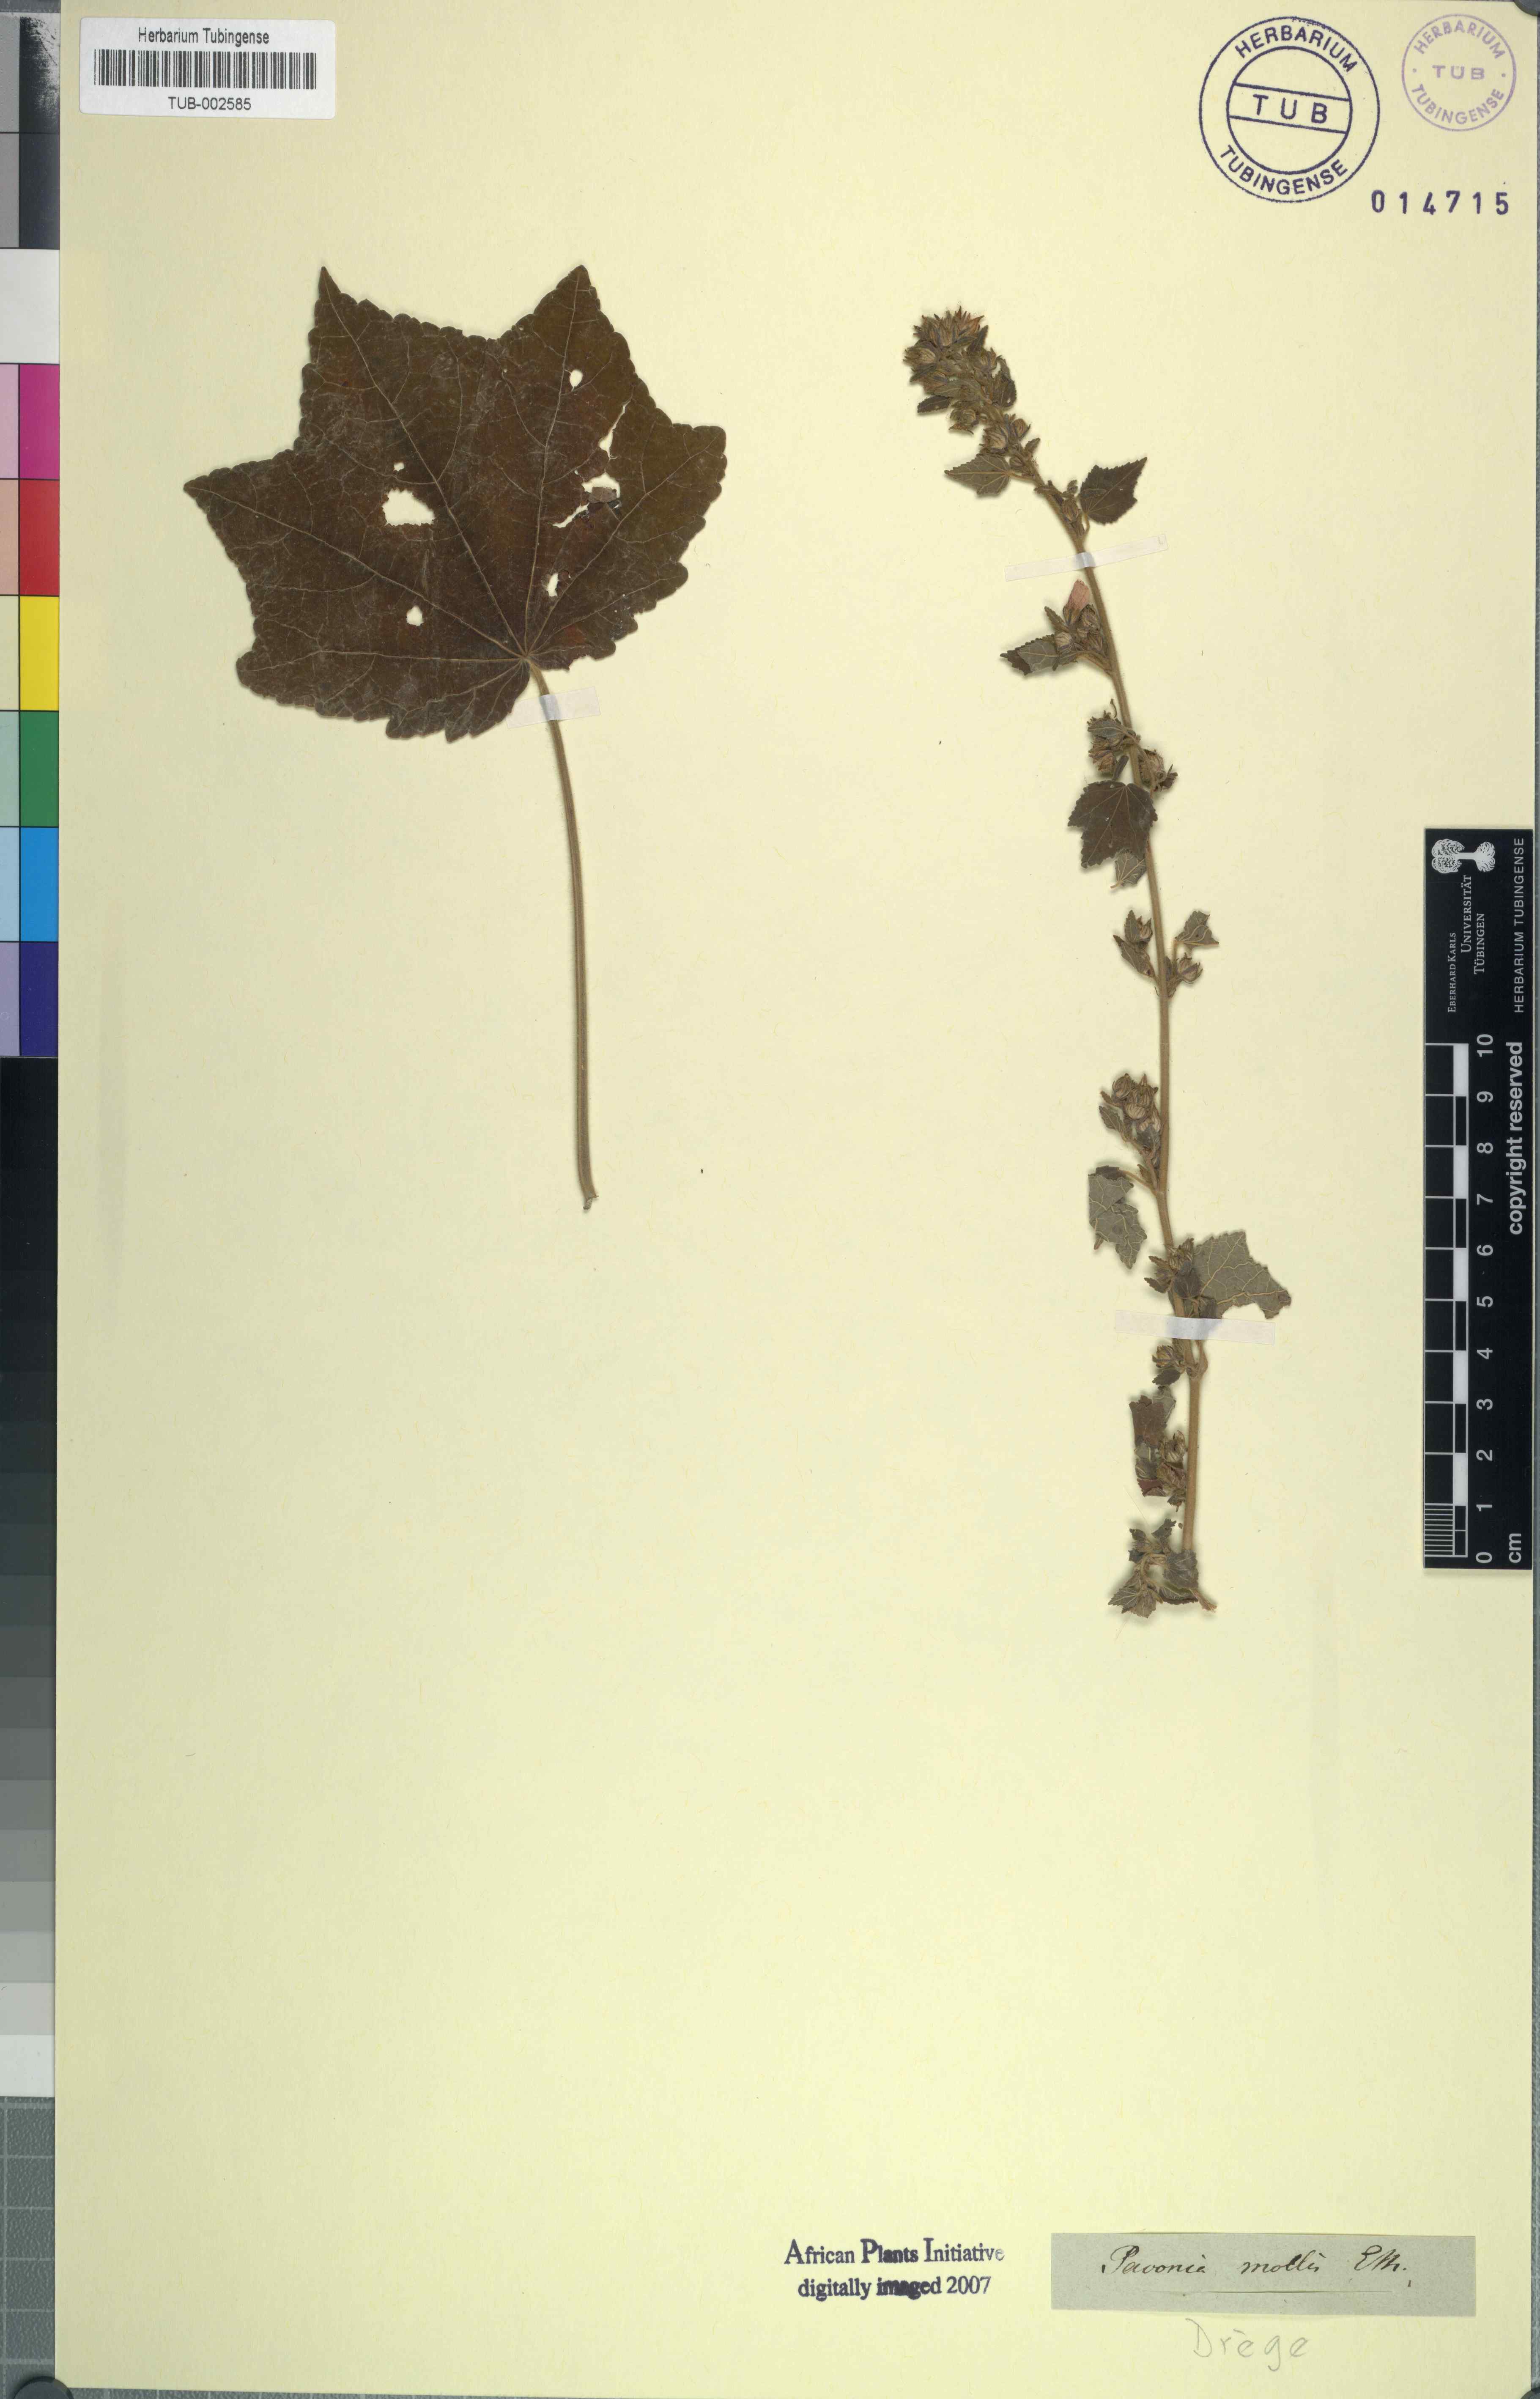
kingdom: Plantae
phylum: Tracheophyta
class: Magnoliopsida
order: Malvales
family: Malvaceae
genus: Pavonia
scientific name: Pavonia columella
